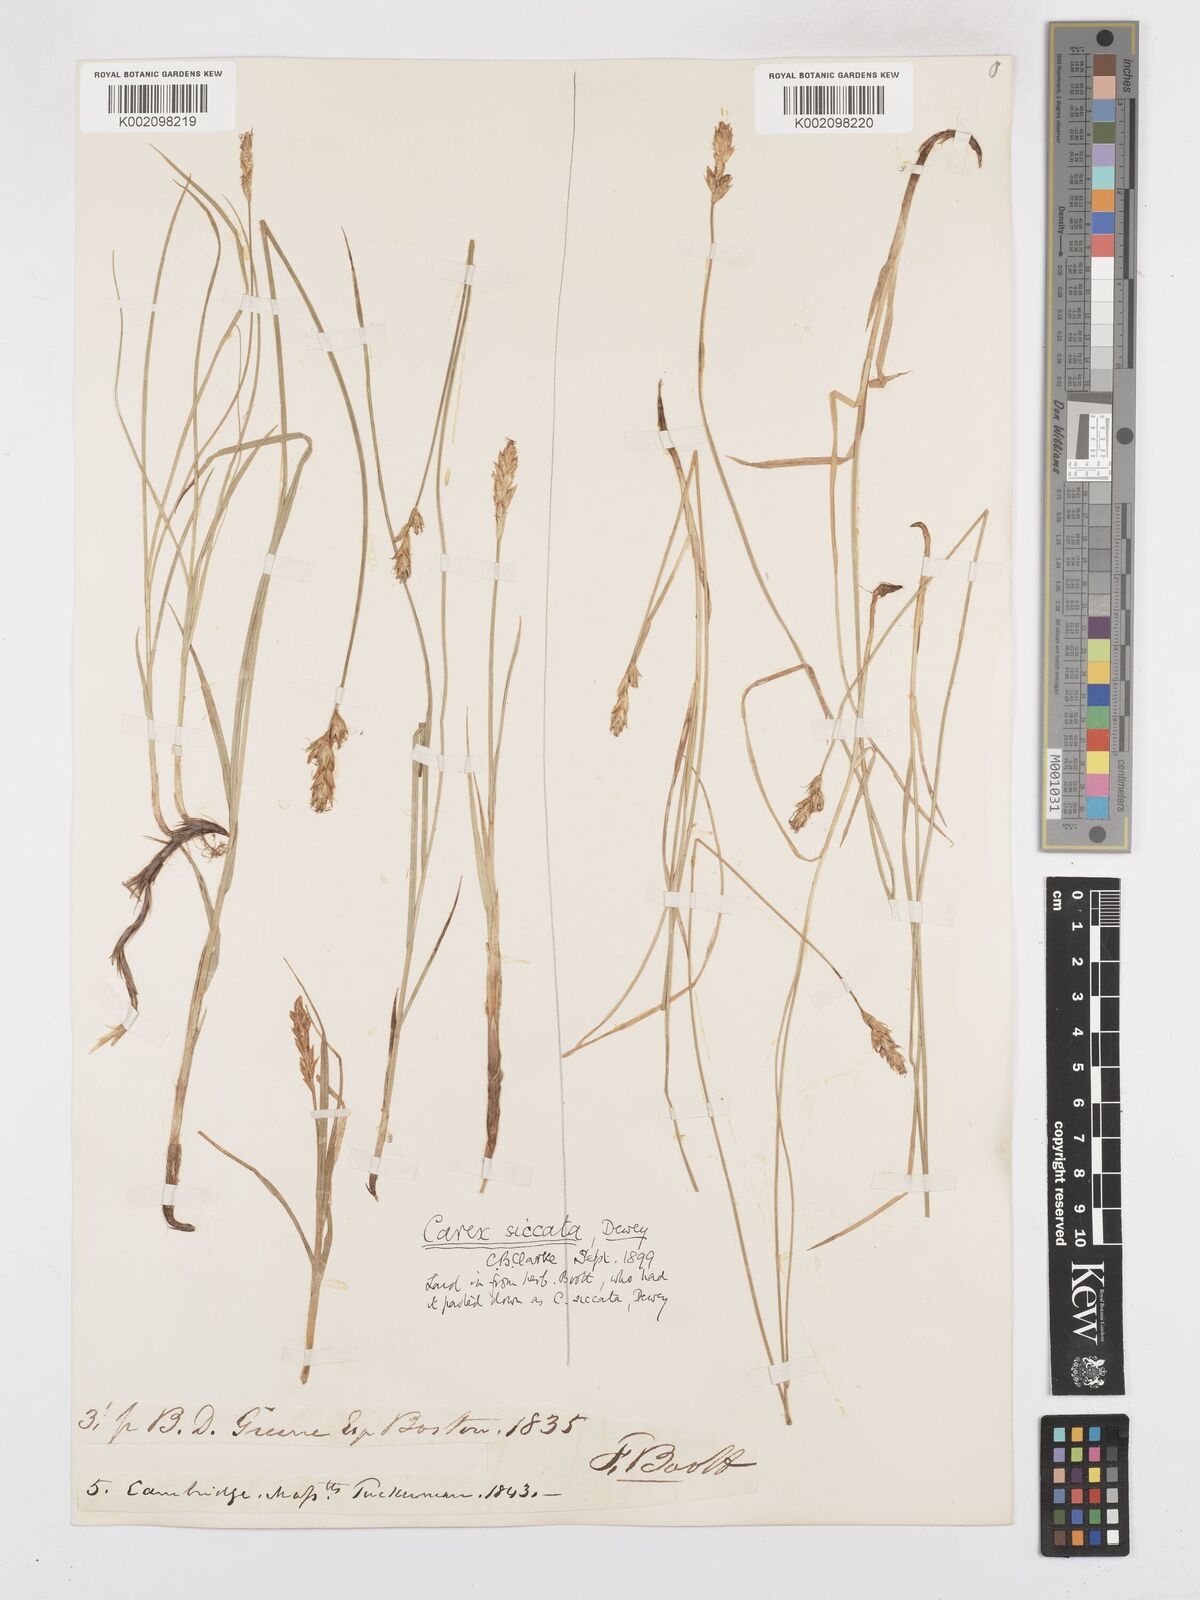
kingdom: Plantae
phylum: Tracheophyta
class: Liliopsida
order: Poales
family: Cyperaceae
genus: Carex
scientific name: Carex foenea
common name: Bronze sedge
